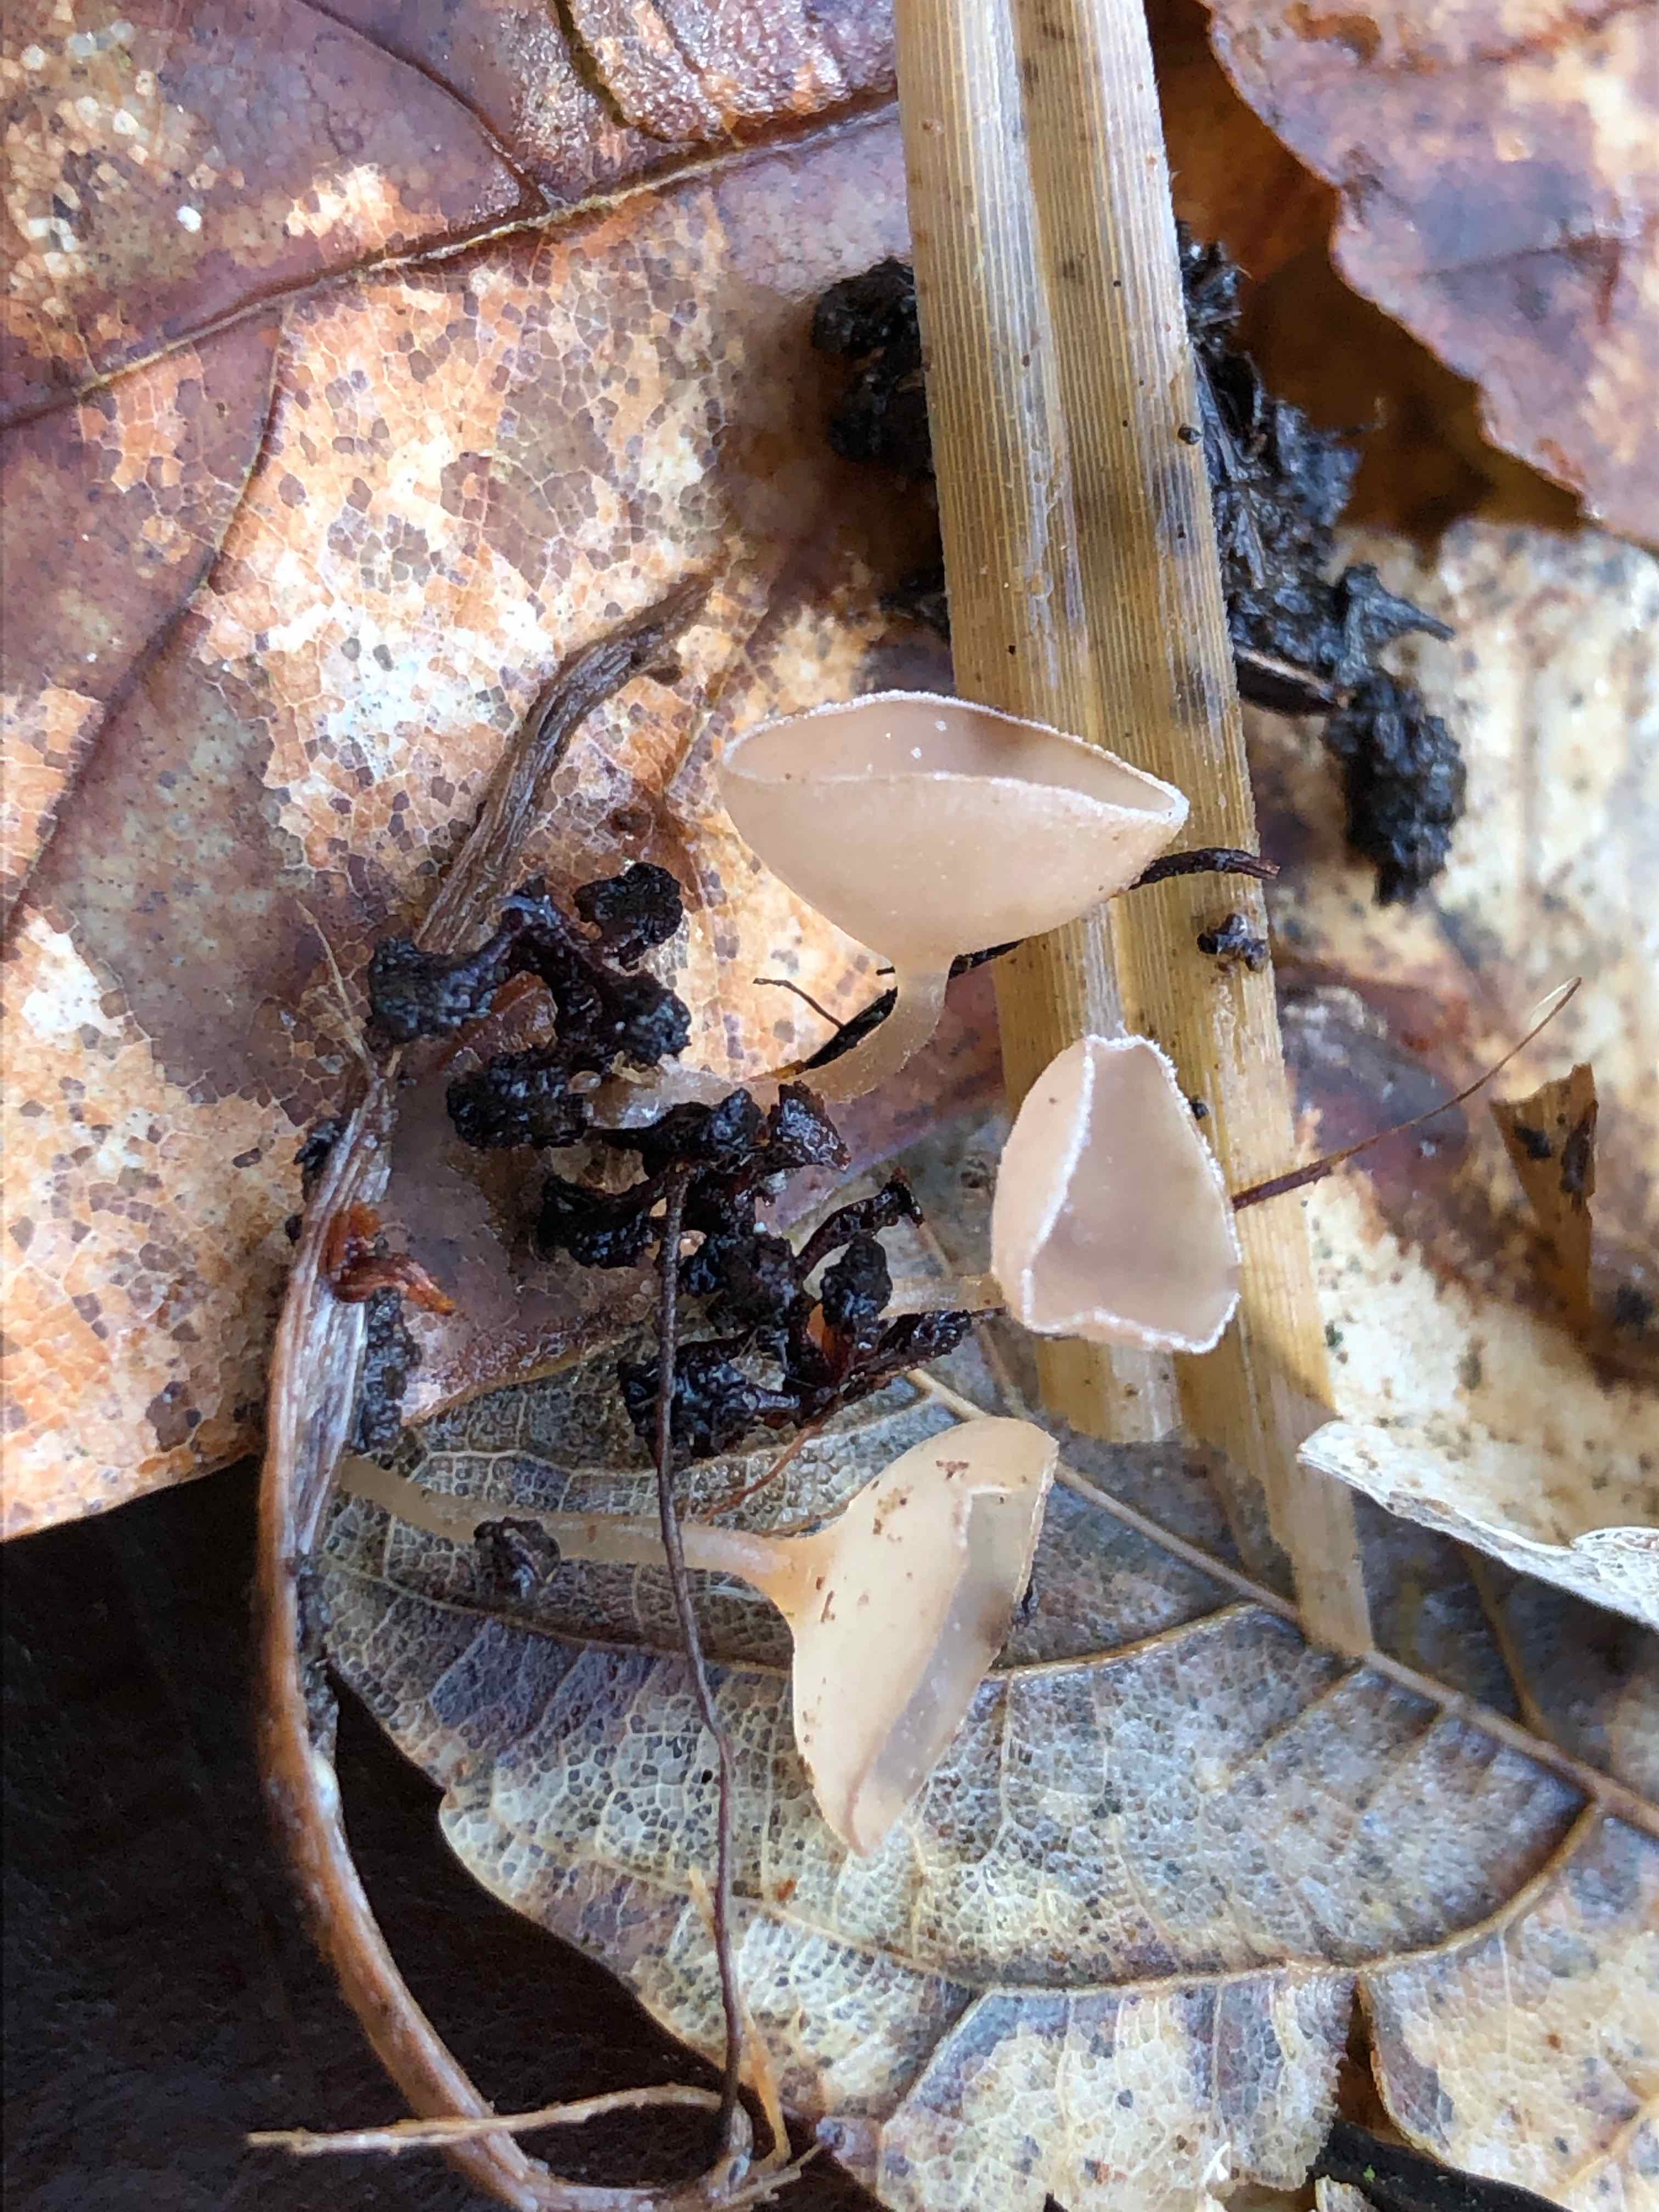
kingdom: Fungi
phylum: Ascomycota
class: Leotiomycetes
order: Helotiales
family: Sclerotiniaceae
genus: Ciboria
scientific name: Ciboria amentacea
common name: ellerakle-knoldskive
